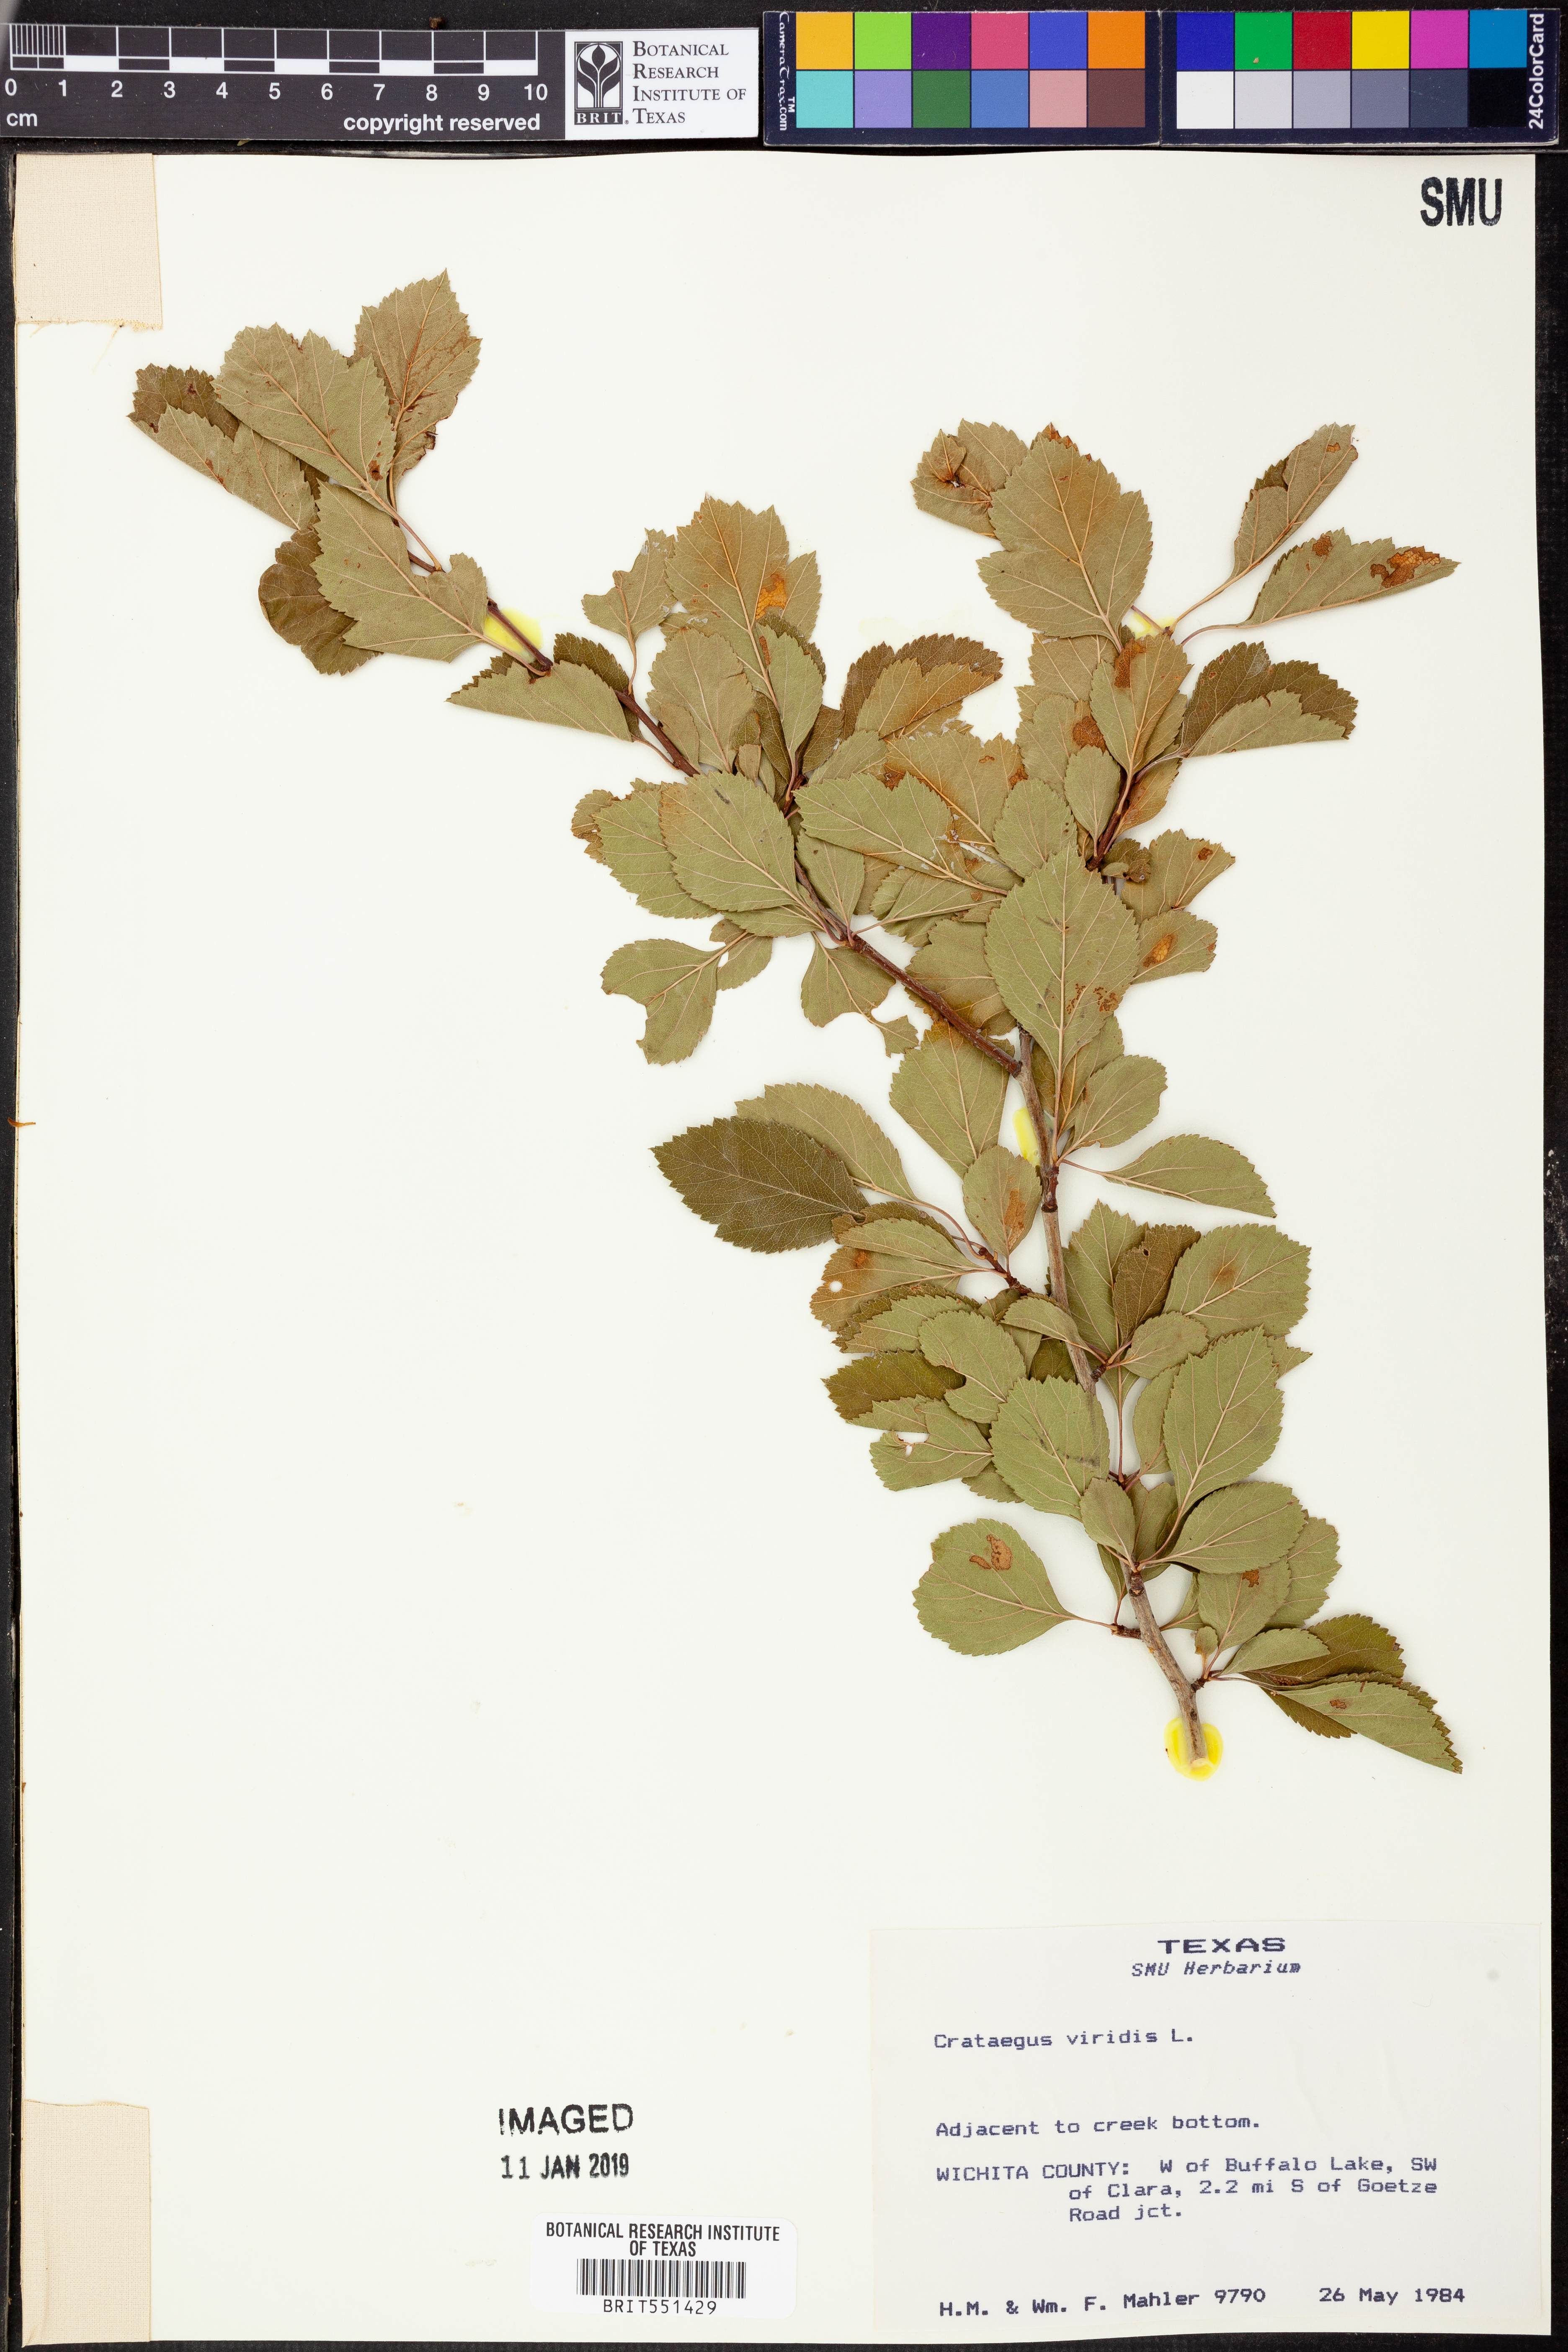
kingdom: Plantae
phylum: Tracheophyta
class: Magnoliopsida
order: Rosales
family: Rosaceae
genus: Crataegus
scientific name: Crataegus viridis
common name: Southernthorn
